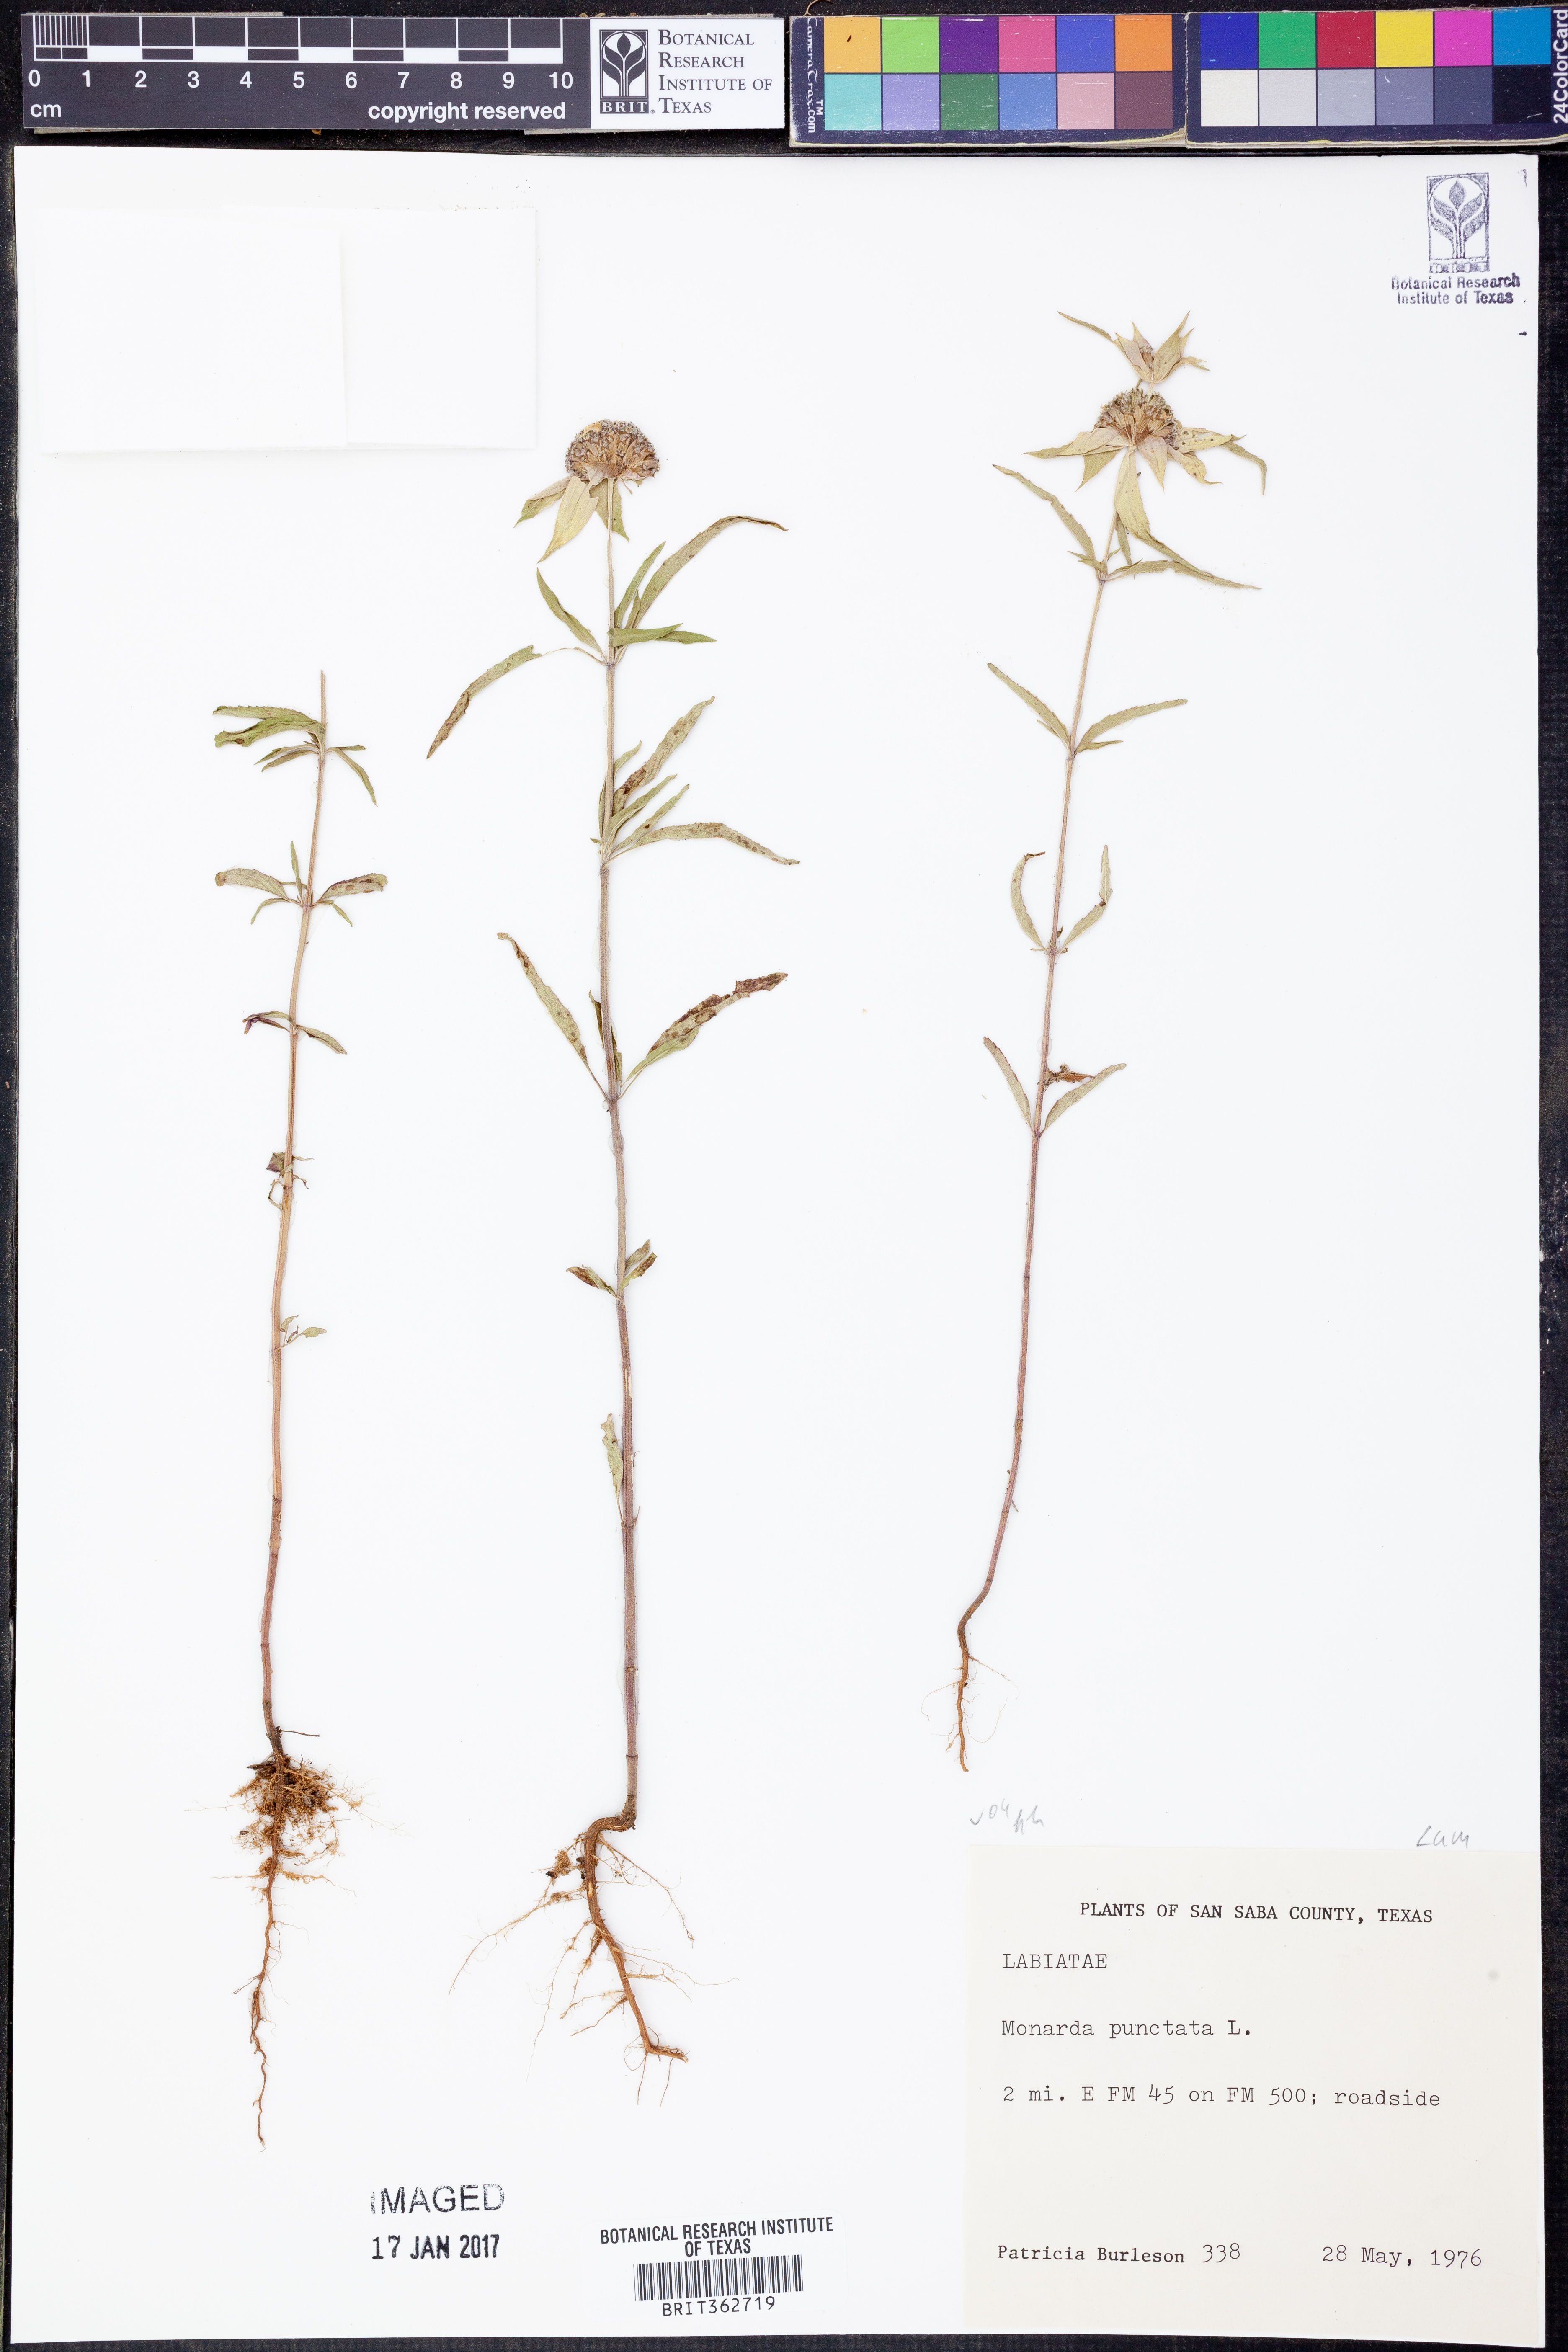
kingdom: Plantae
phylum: Tracheophyta
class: Magnoliopsida
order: Lamiales
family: Lamiaceae
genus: Monarda
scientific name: Monarda punctata
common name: Dotted monarda
